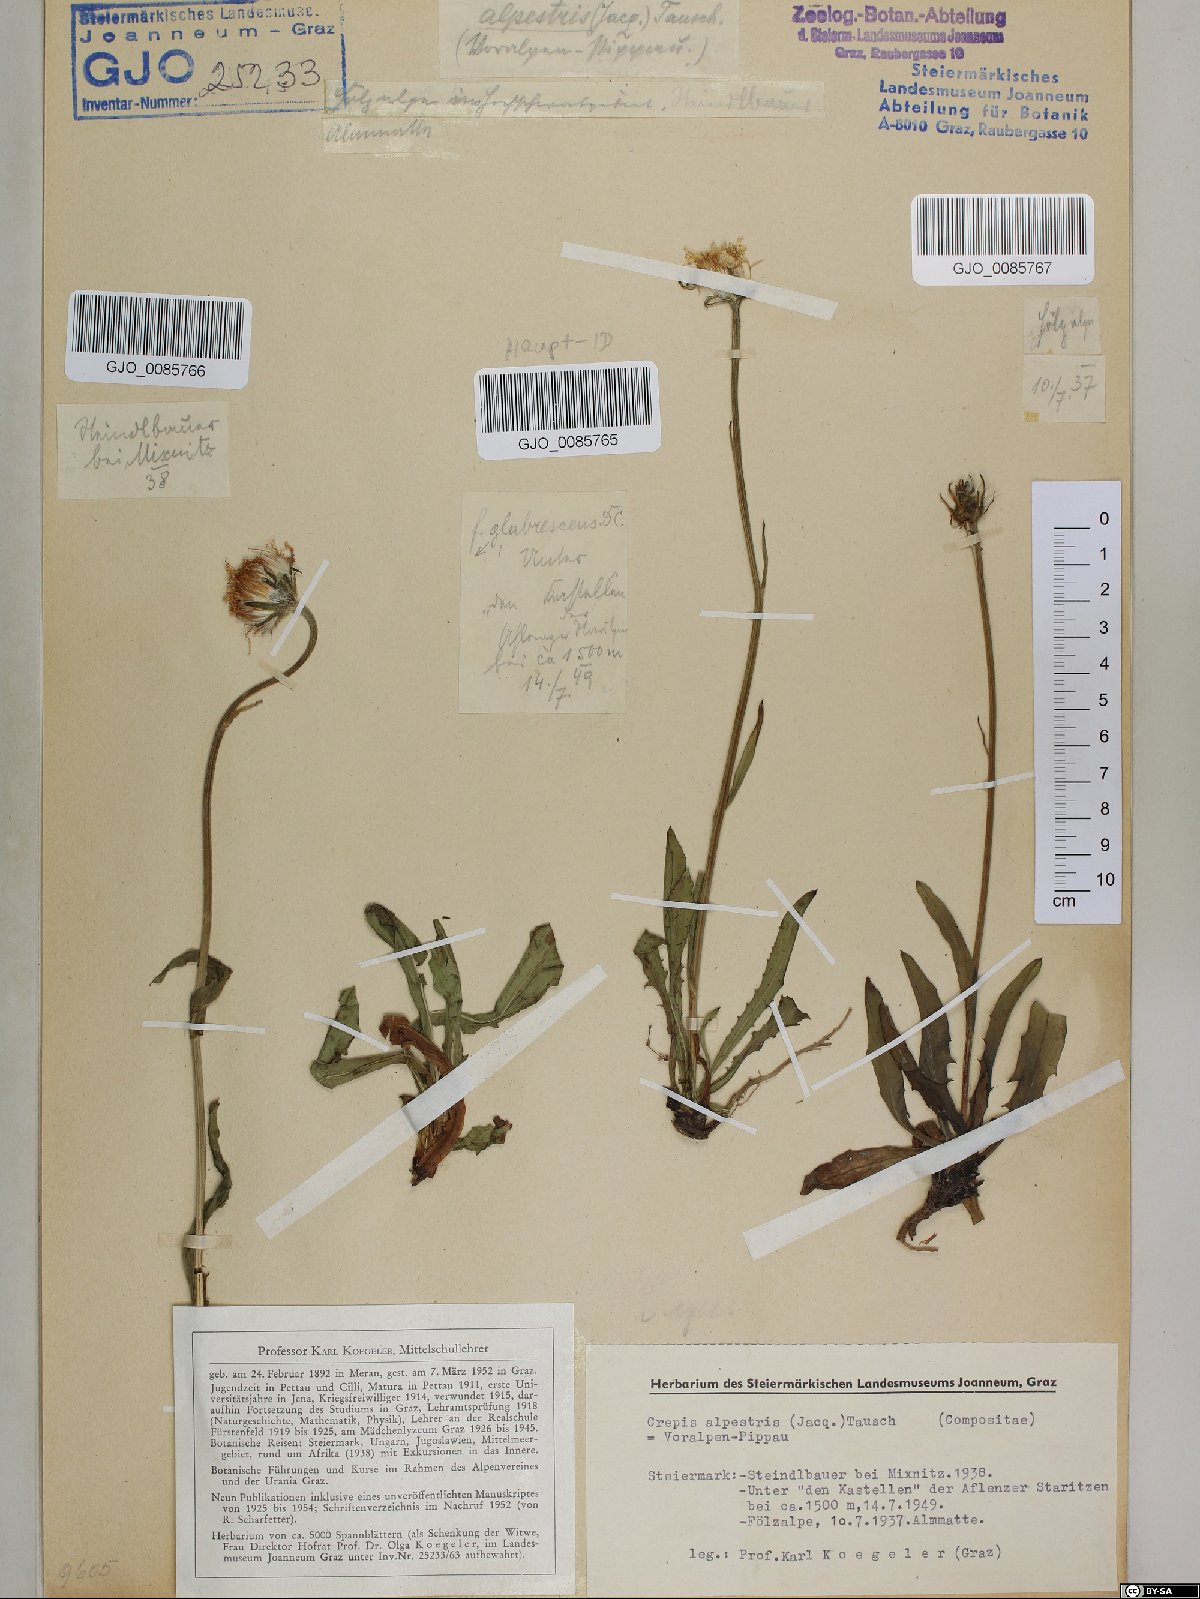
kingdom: Plantae
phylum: Tracheophyta
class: Magnoliopsida
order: Asterales
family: Asteraceae
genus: Crepis
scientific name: Crepis alpestris
